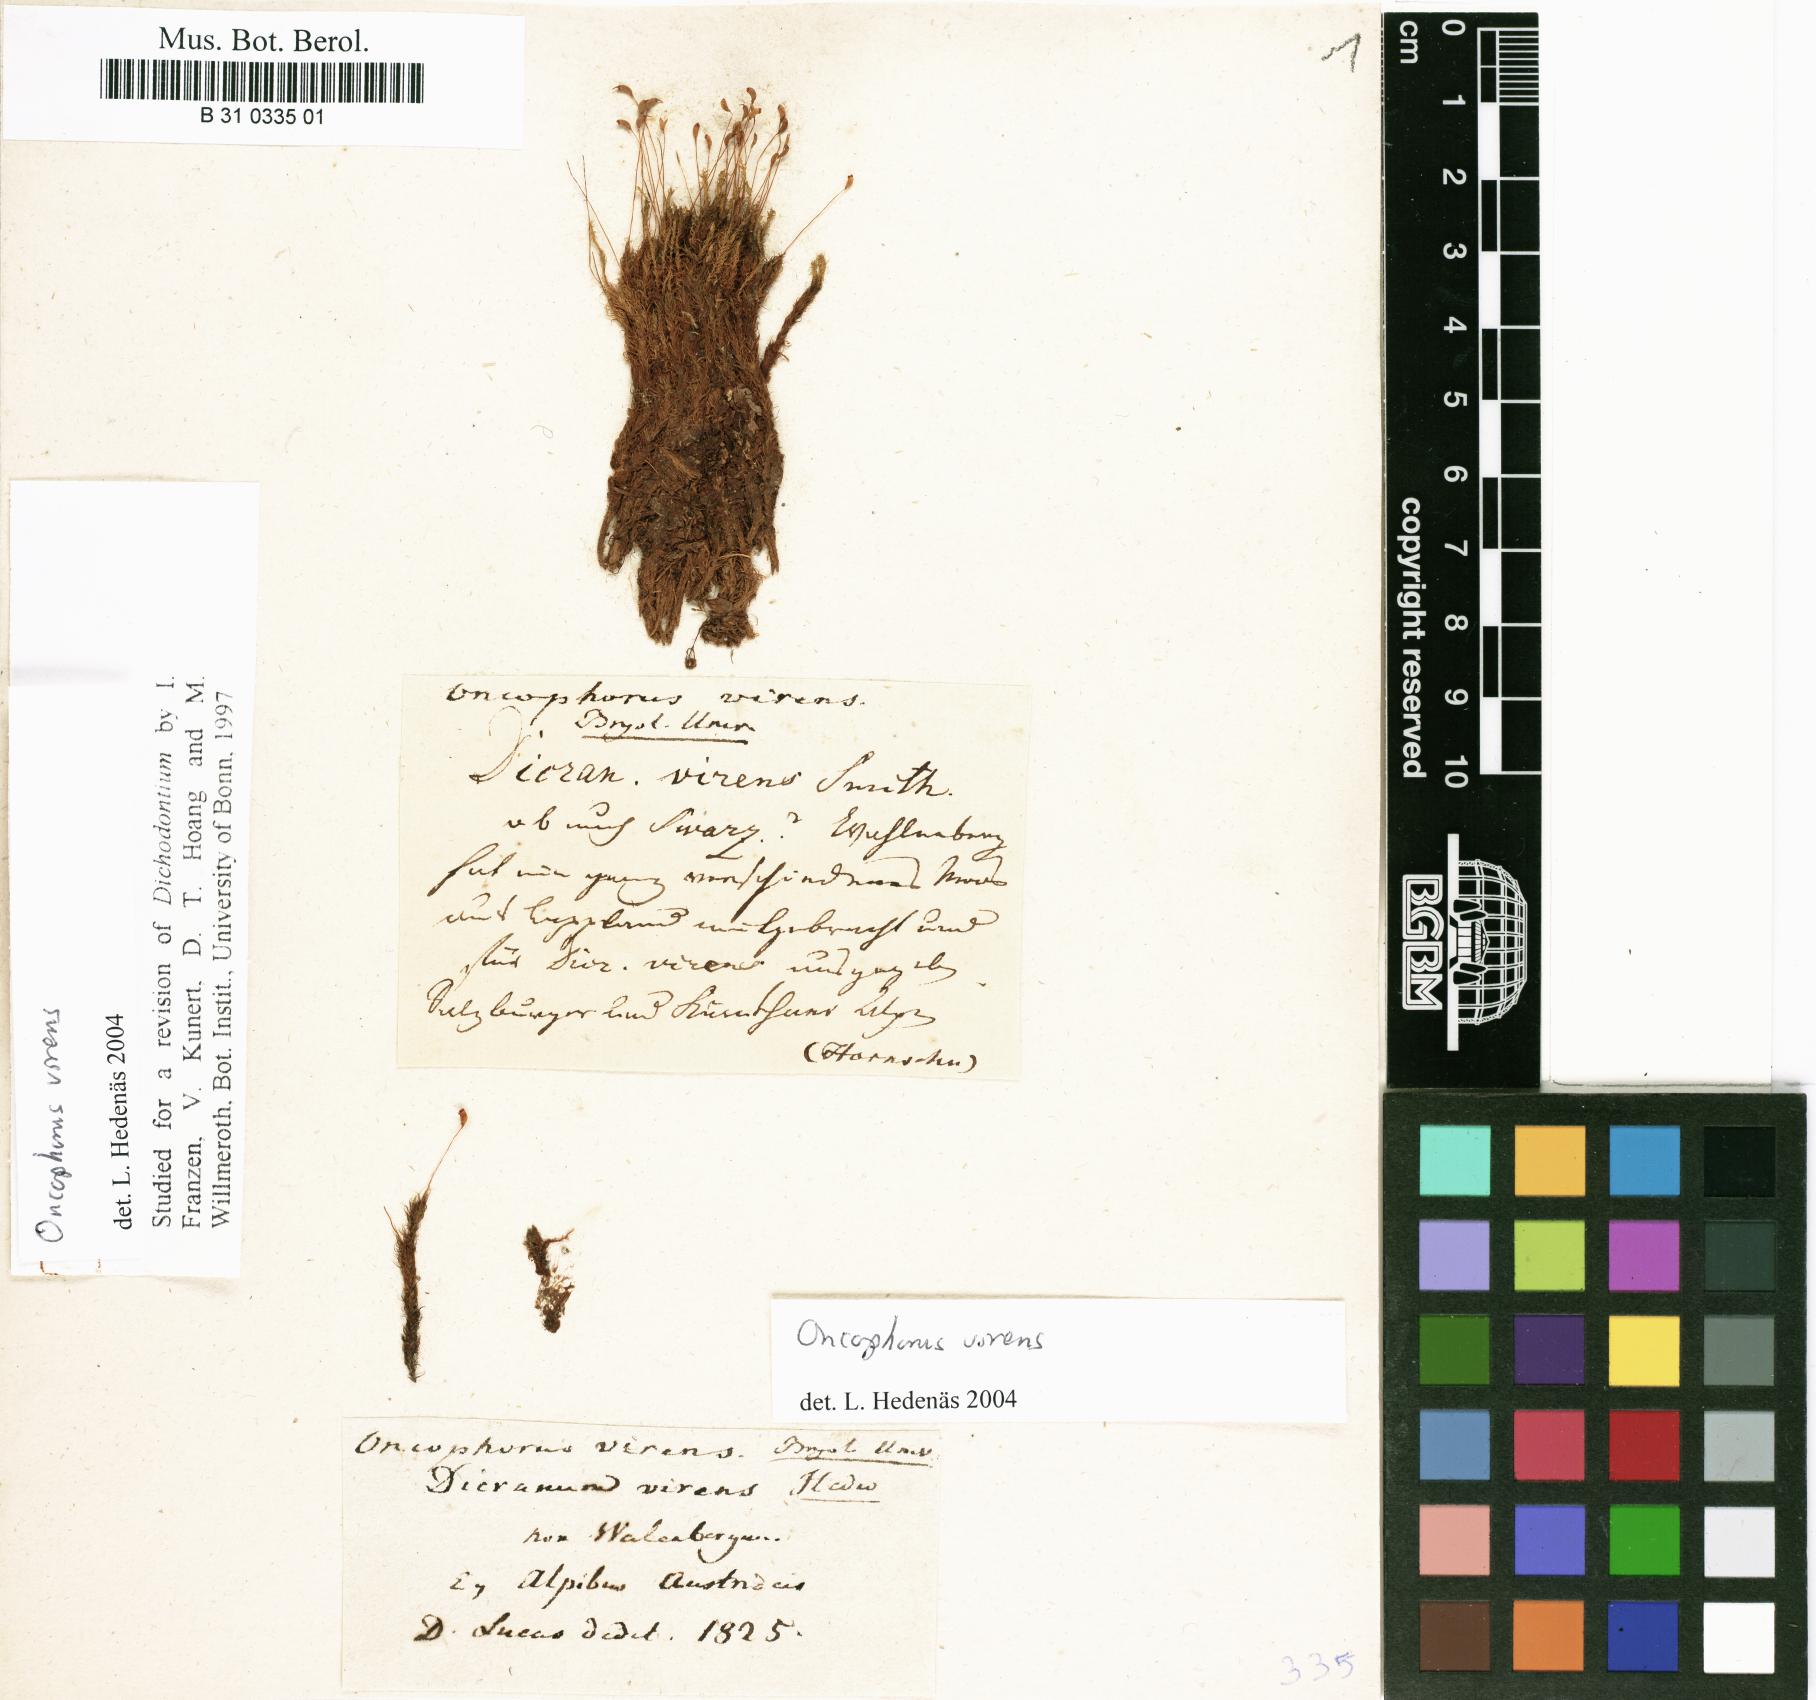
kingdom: Plantae
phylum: Bryophyta
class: Bryopsida
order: Dicranales
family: Rhabdoweisiaceae
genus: Oncophorus
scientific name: Oncophorus virens
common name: Green spur moss
